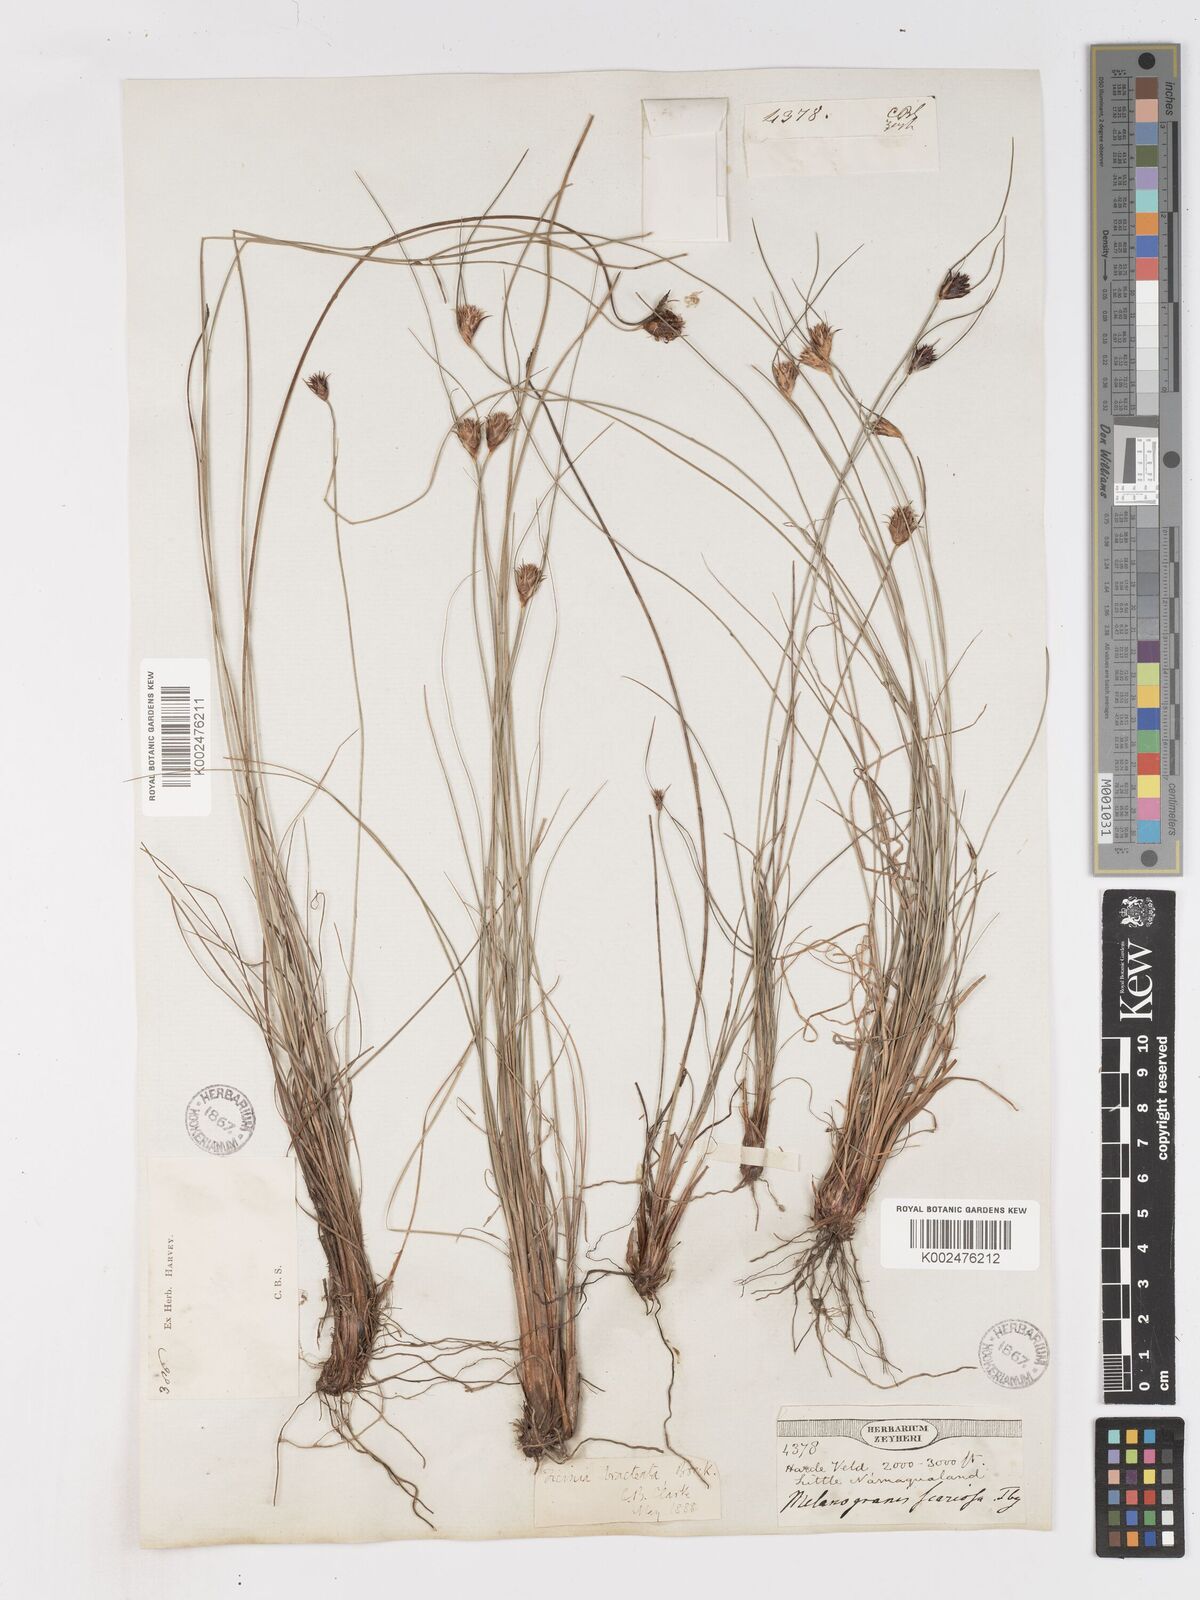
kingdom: Plantae
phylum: Tracheophyta
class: Liliopsida
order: Poales
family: Cyperaceae
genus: Ficinia
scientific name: Ficinia nigrescens
